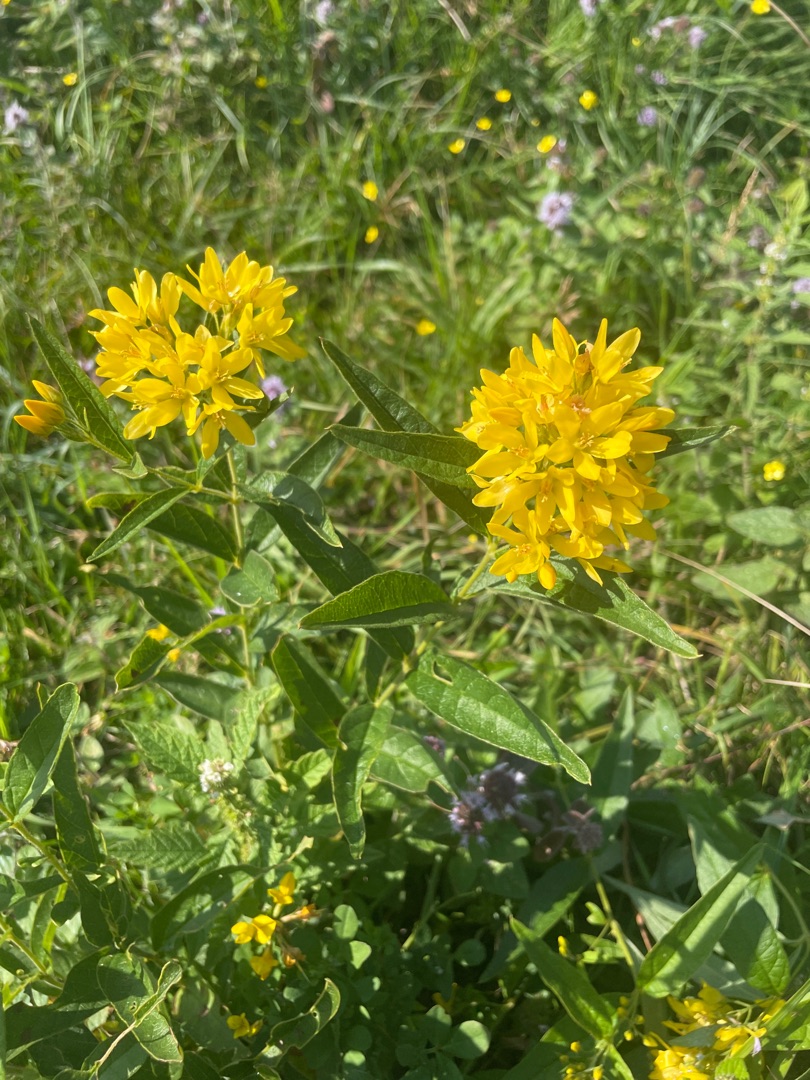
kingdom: Plantae
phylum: Tracheophyta
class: Magnoliopsida
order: Ericales
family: Primulaceae
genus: Lysimachia
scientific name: Lysimachia vulgaris
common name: Almindelig fredløs
